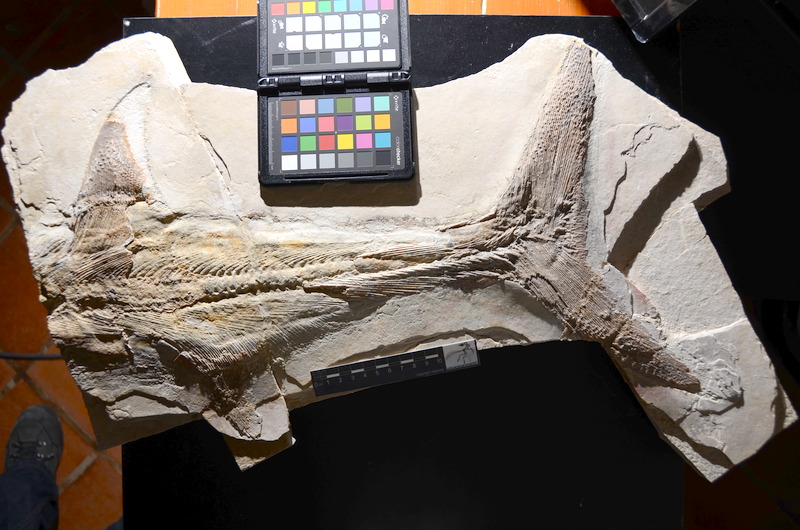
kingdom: Animalia
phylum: Chordata
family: Pachycormidae
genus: Orthocormus
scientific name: Orthocormus cornutus
